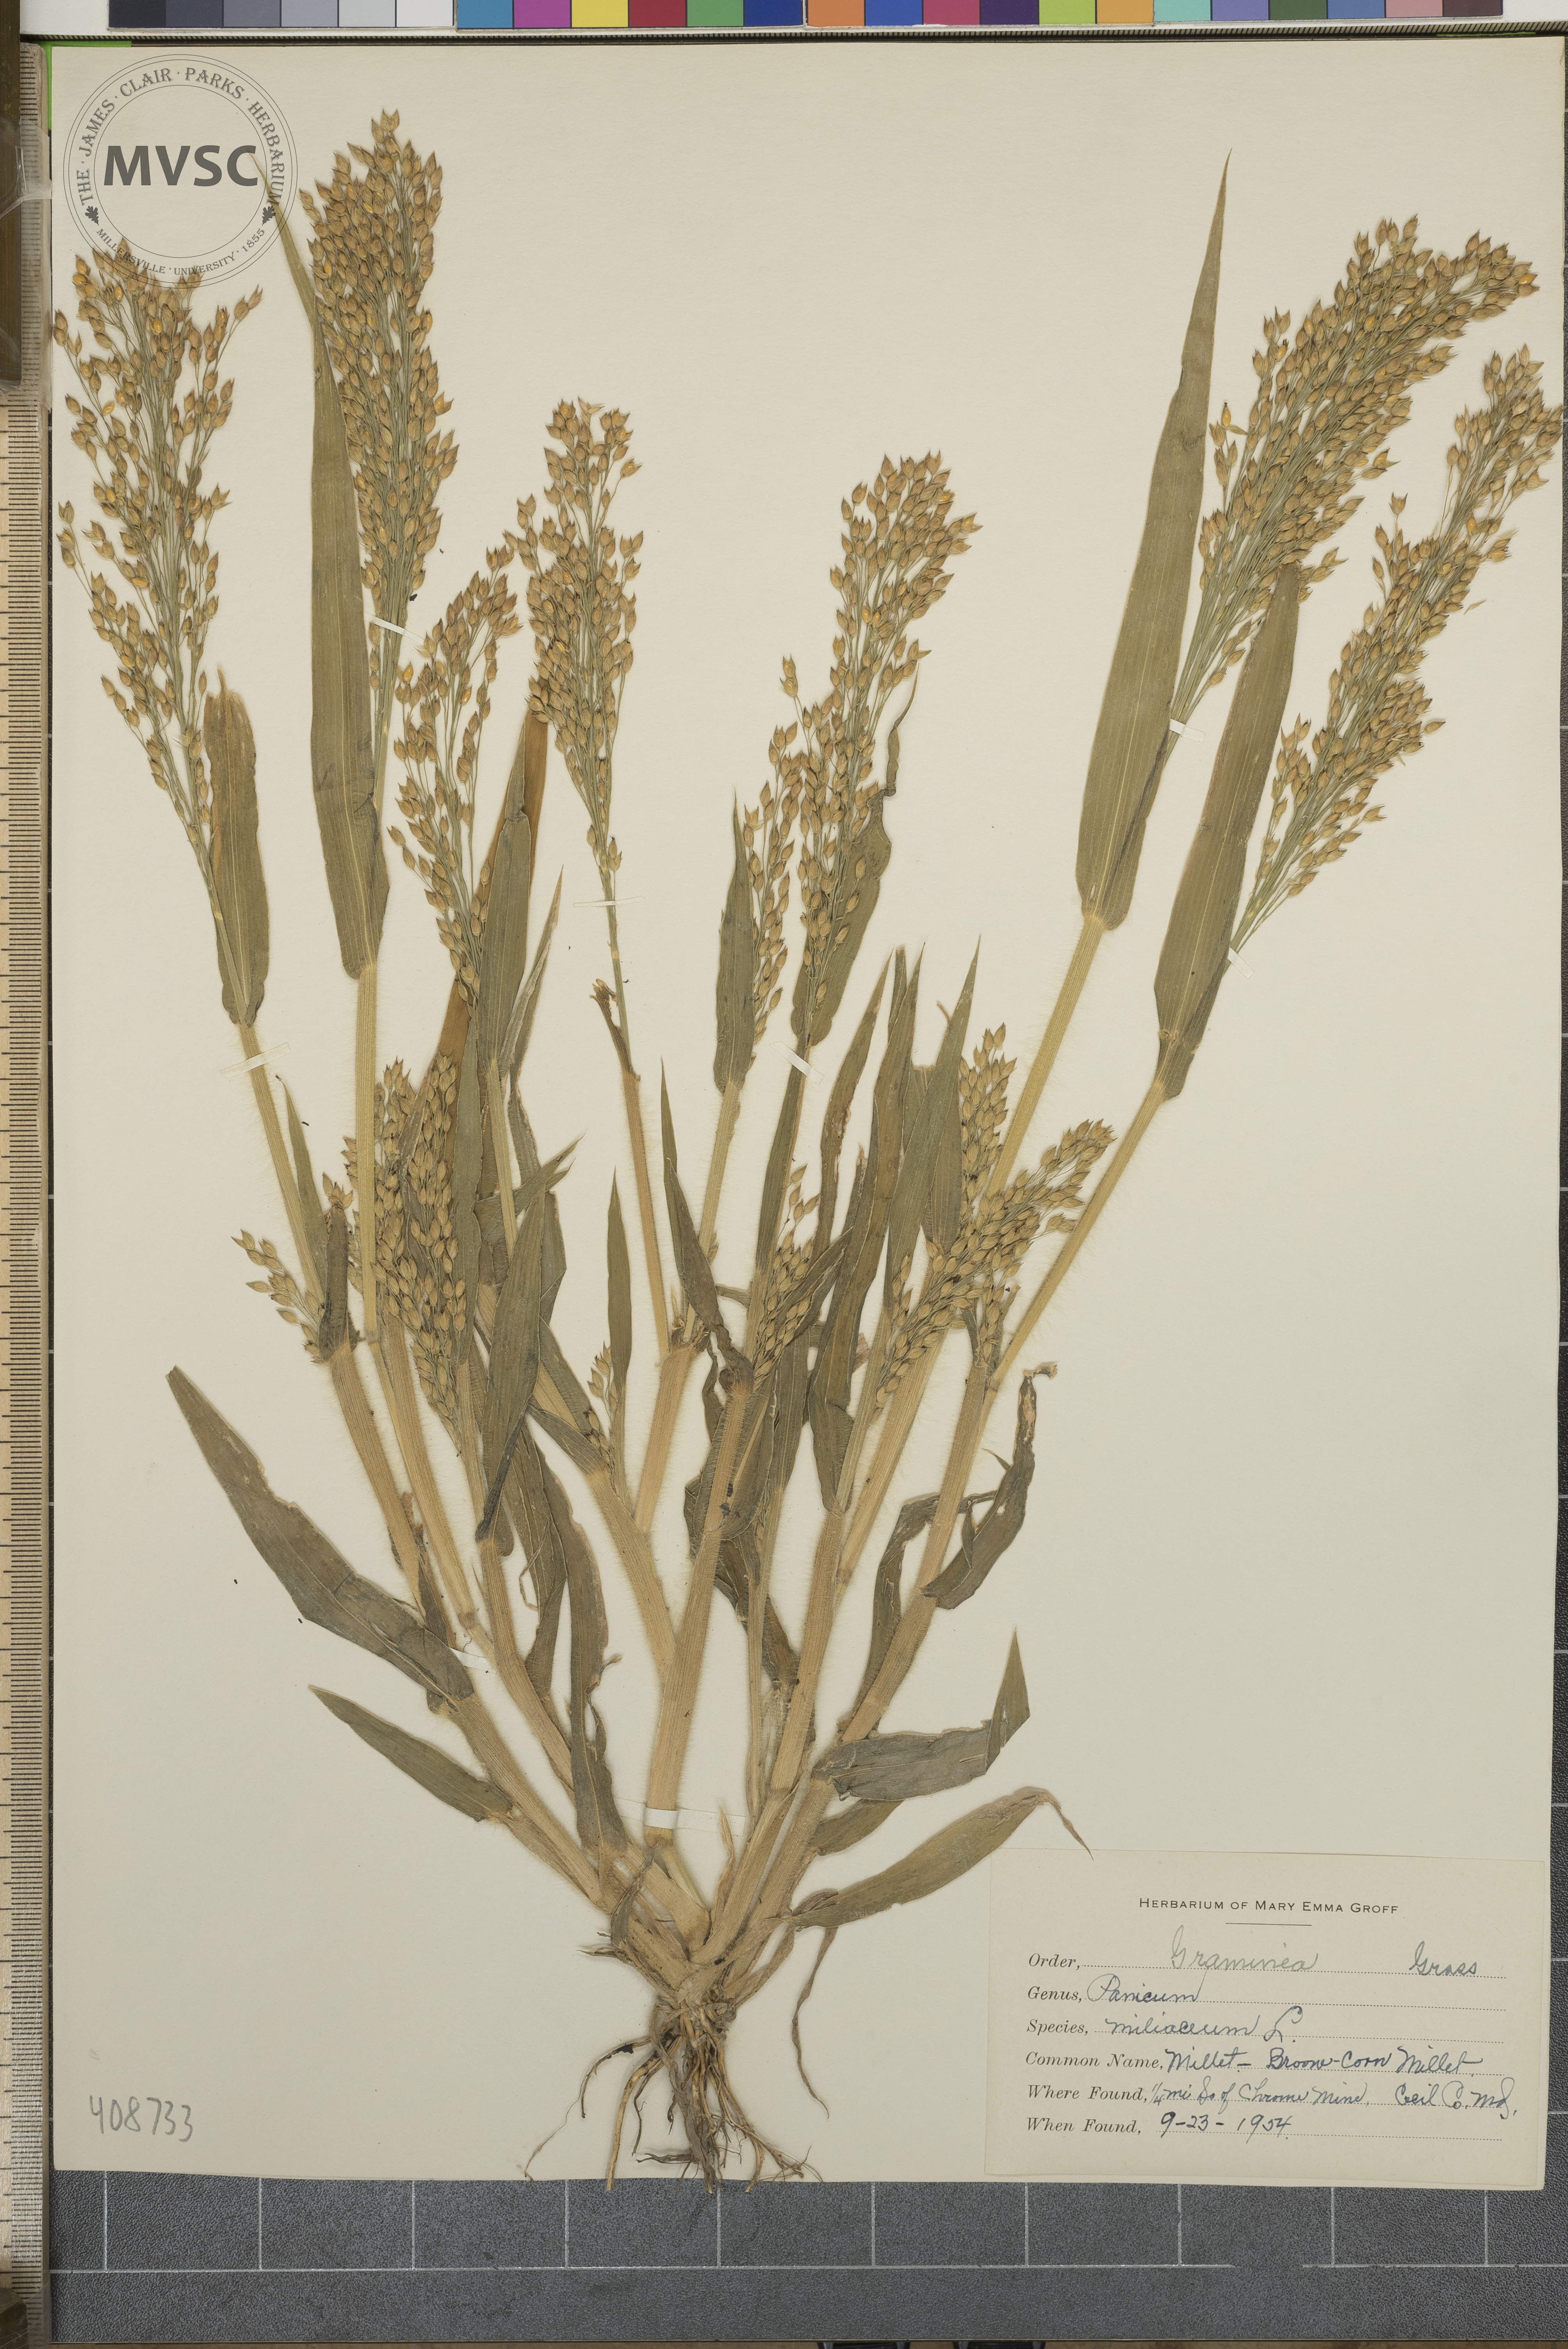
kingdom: Plantae
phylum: Tracheophyta
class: Liliopsida
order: Poales
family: Poaceae
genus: Panicum
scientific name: Panicum miliaceum
